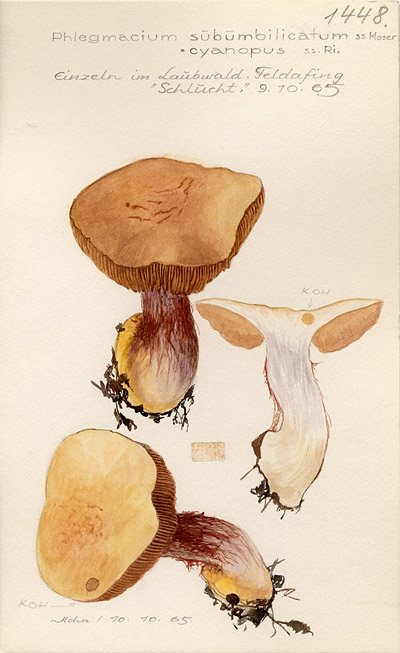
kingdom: Fungi
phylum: Basidiomycota
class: Agaricomycetes
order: Agaricales
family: Cortinariaceae
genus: Cortinarius
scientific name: Cortinarius subumbilicatus
